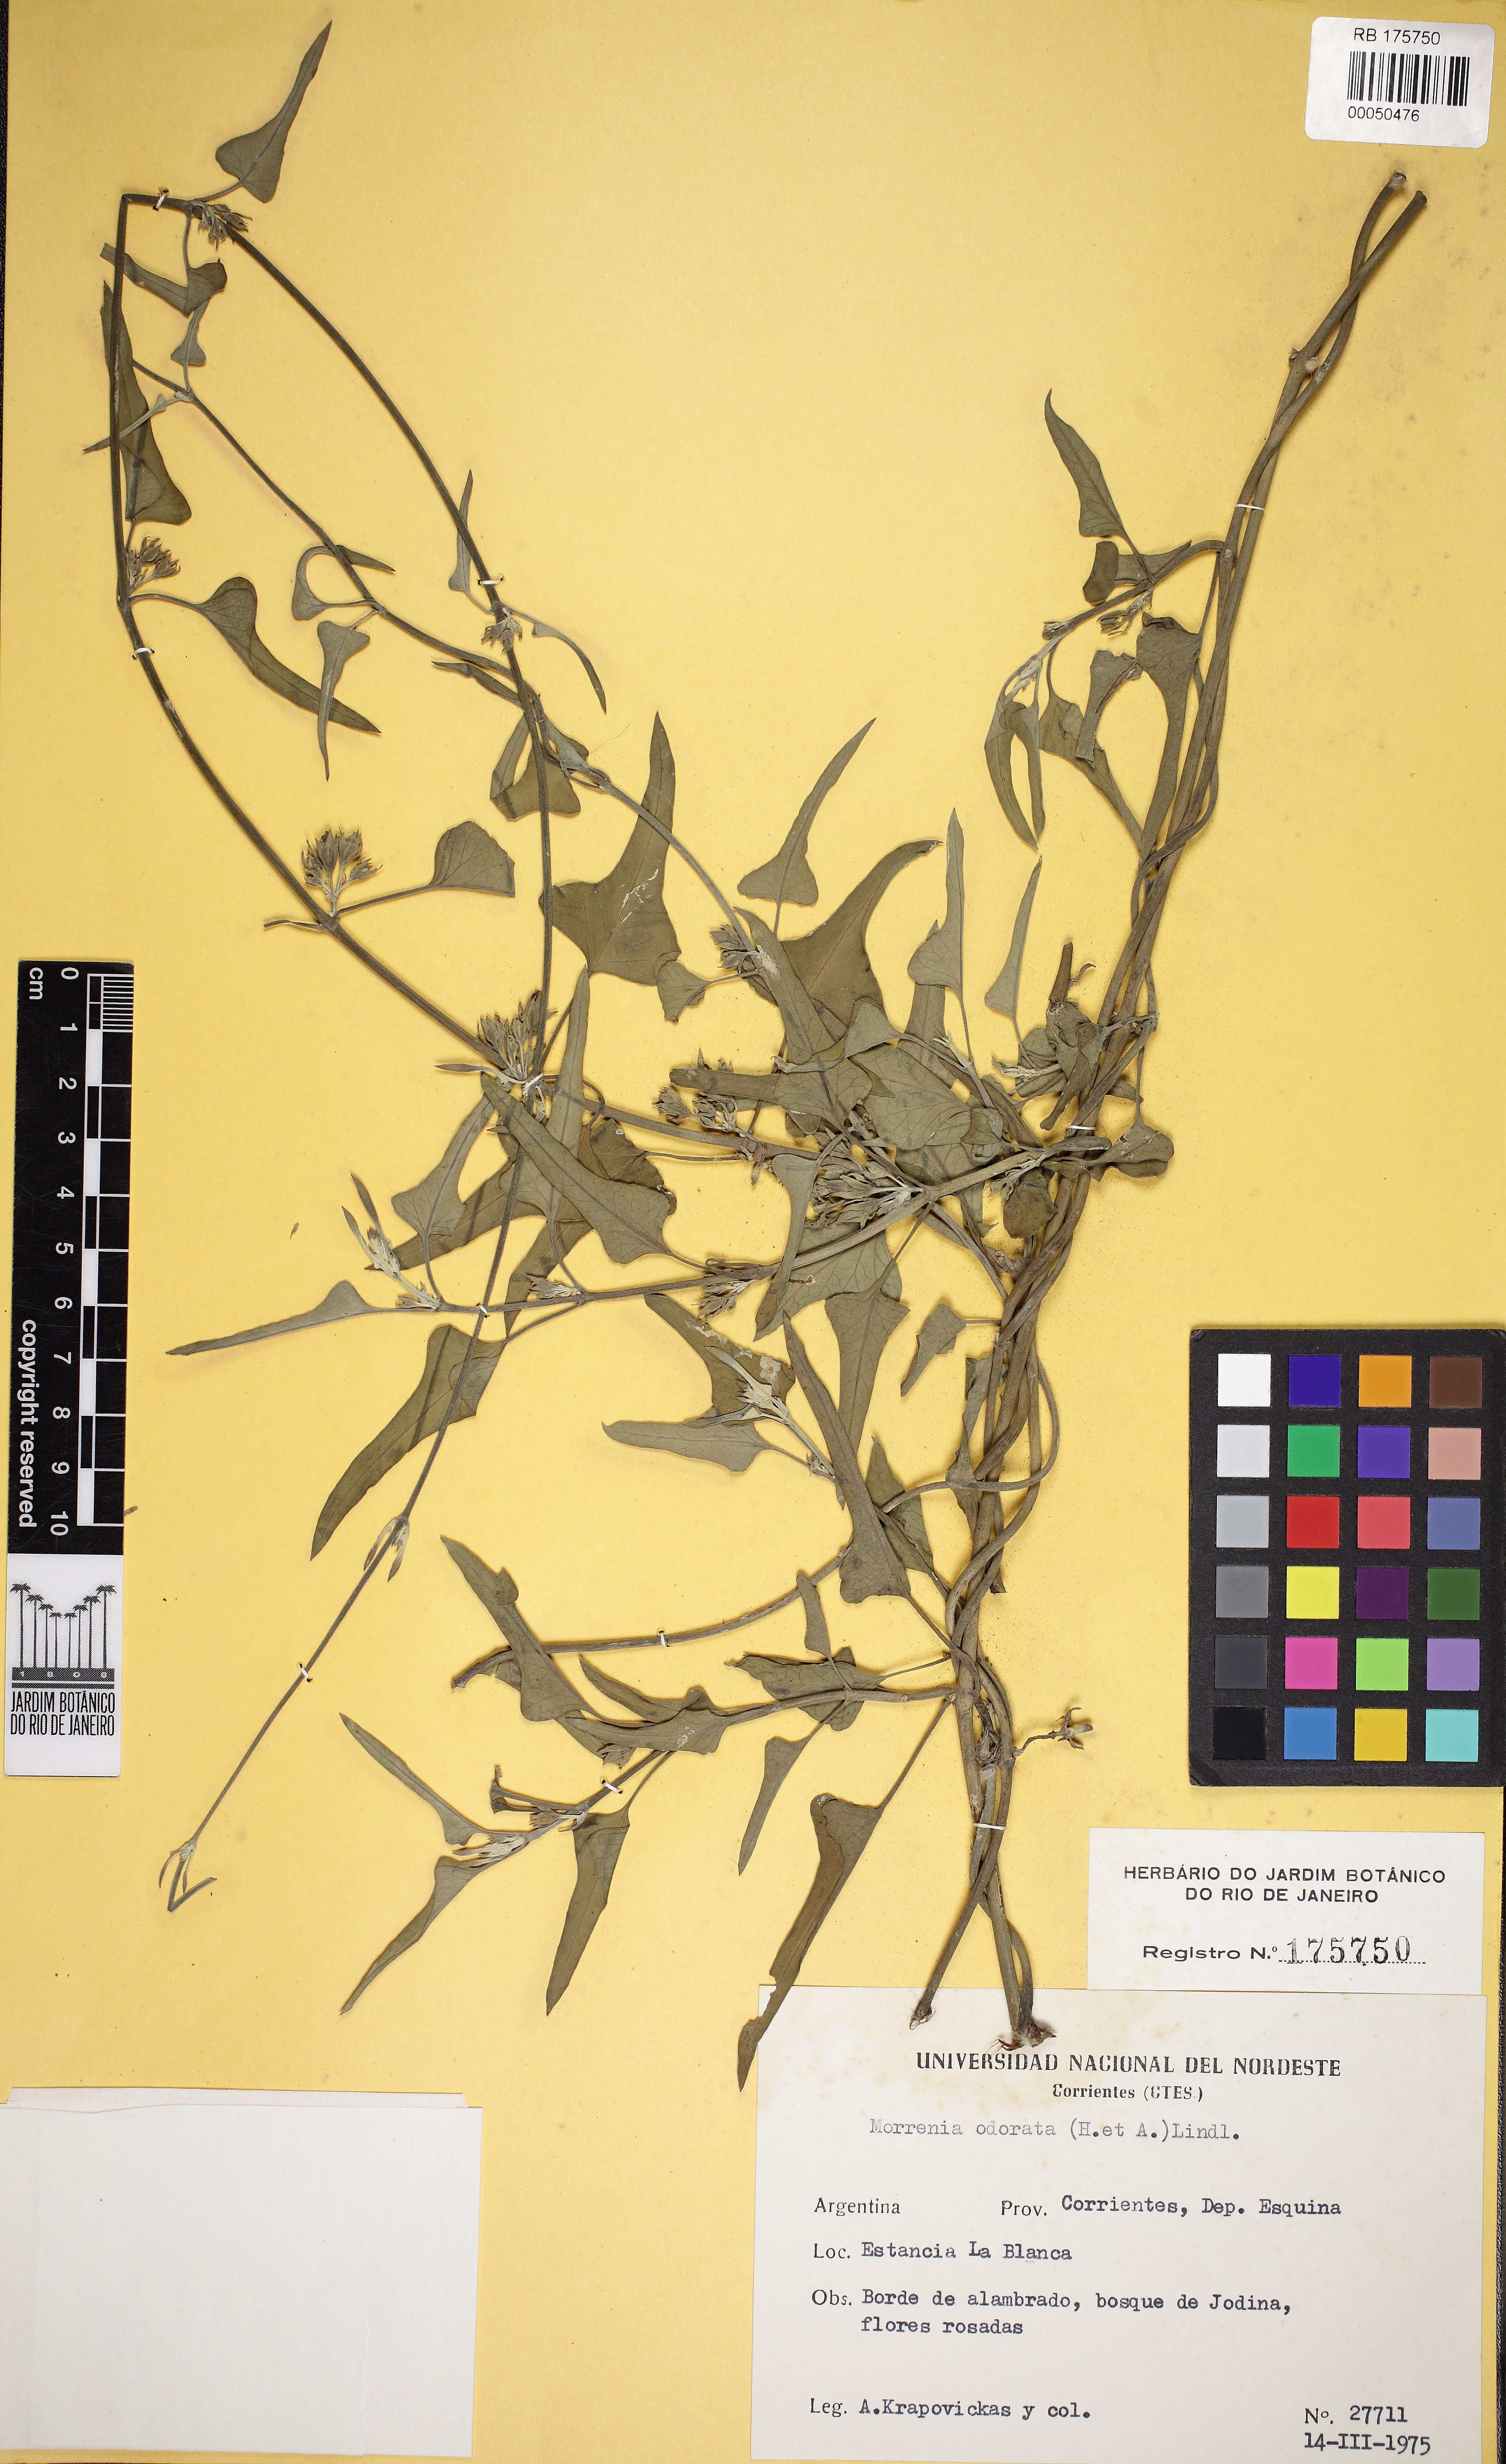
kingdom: Plantae
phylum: Tracheophyta
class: Magnoliopsida
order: Gentianales
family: Apocynaceae
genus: Araujia
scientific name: Araujia odorata
